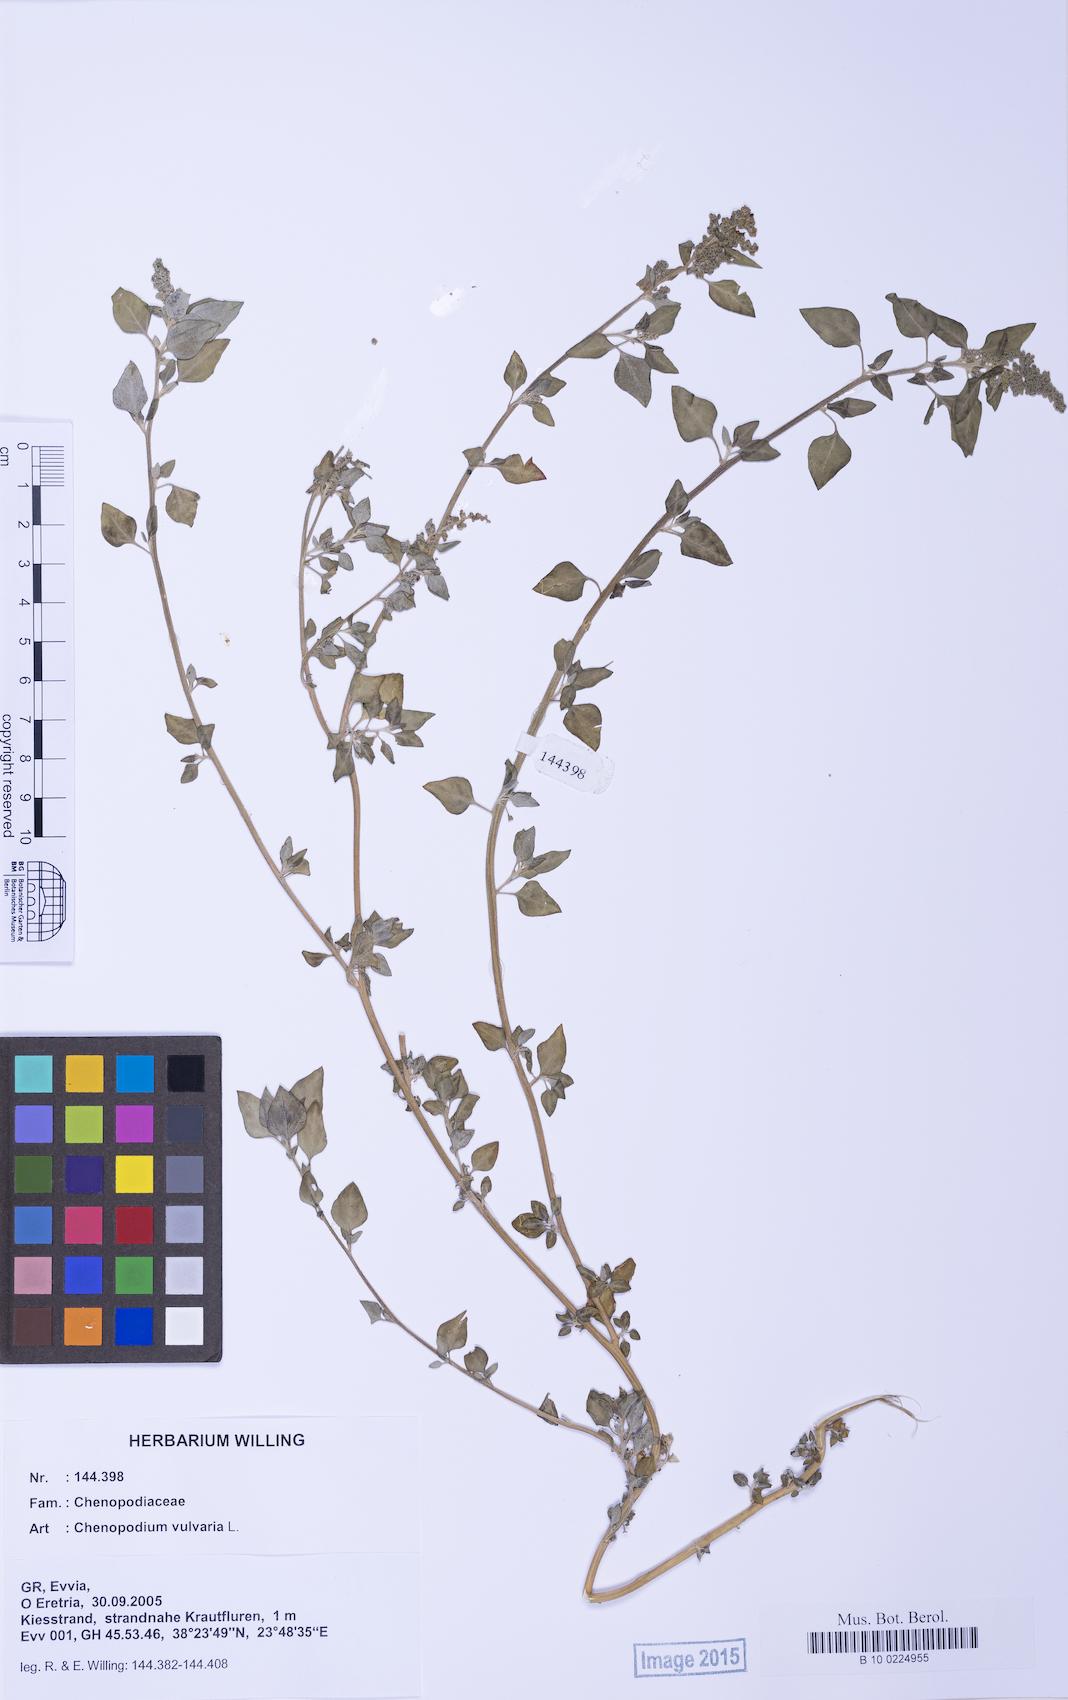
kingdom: Plantae
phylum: Tracheophyta
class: Magnoliopsida
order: Caryophyllales
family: Amaranthaceae
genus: Chenopodium
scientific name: Chenopodium vulvaria
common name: Stinking goosefoot
